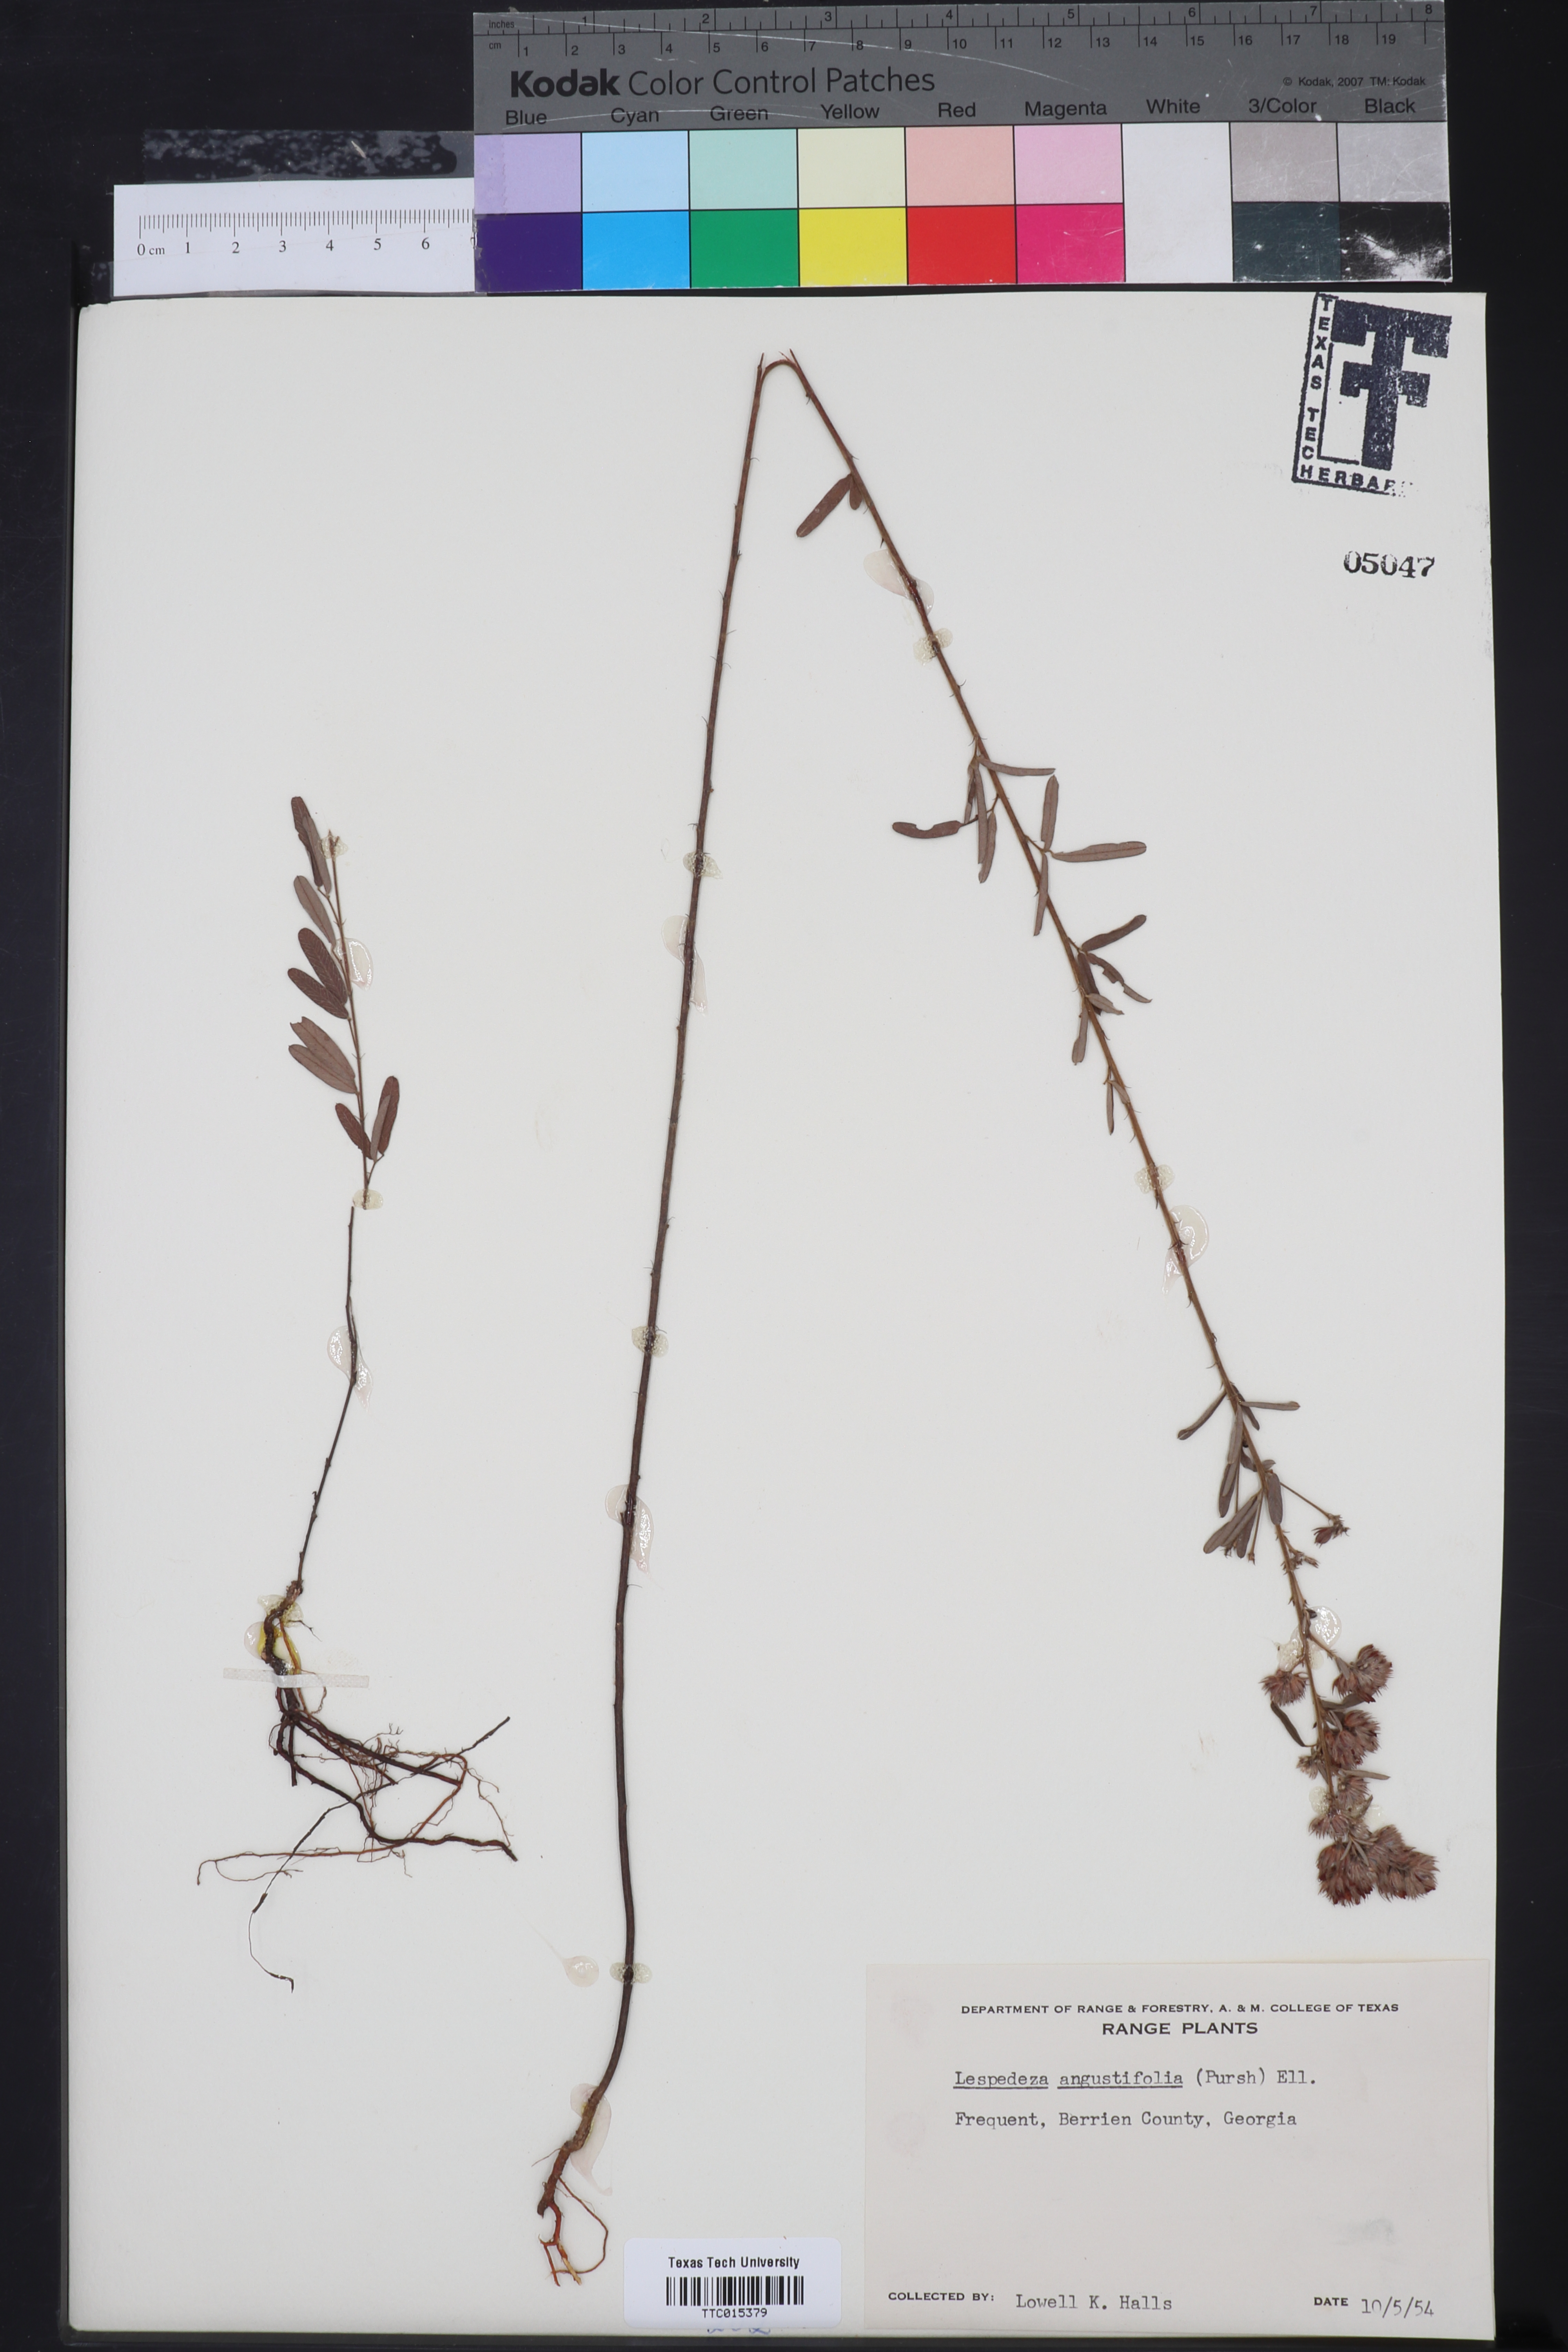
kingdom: Plantae
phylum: Tracheophyta
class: Magnoliopsida
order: Fabales
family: Fabaceae
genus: Lespedeza
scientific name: Lespedeza angustifolia
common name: Narrow-leaf bush-clover
